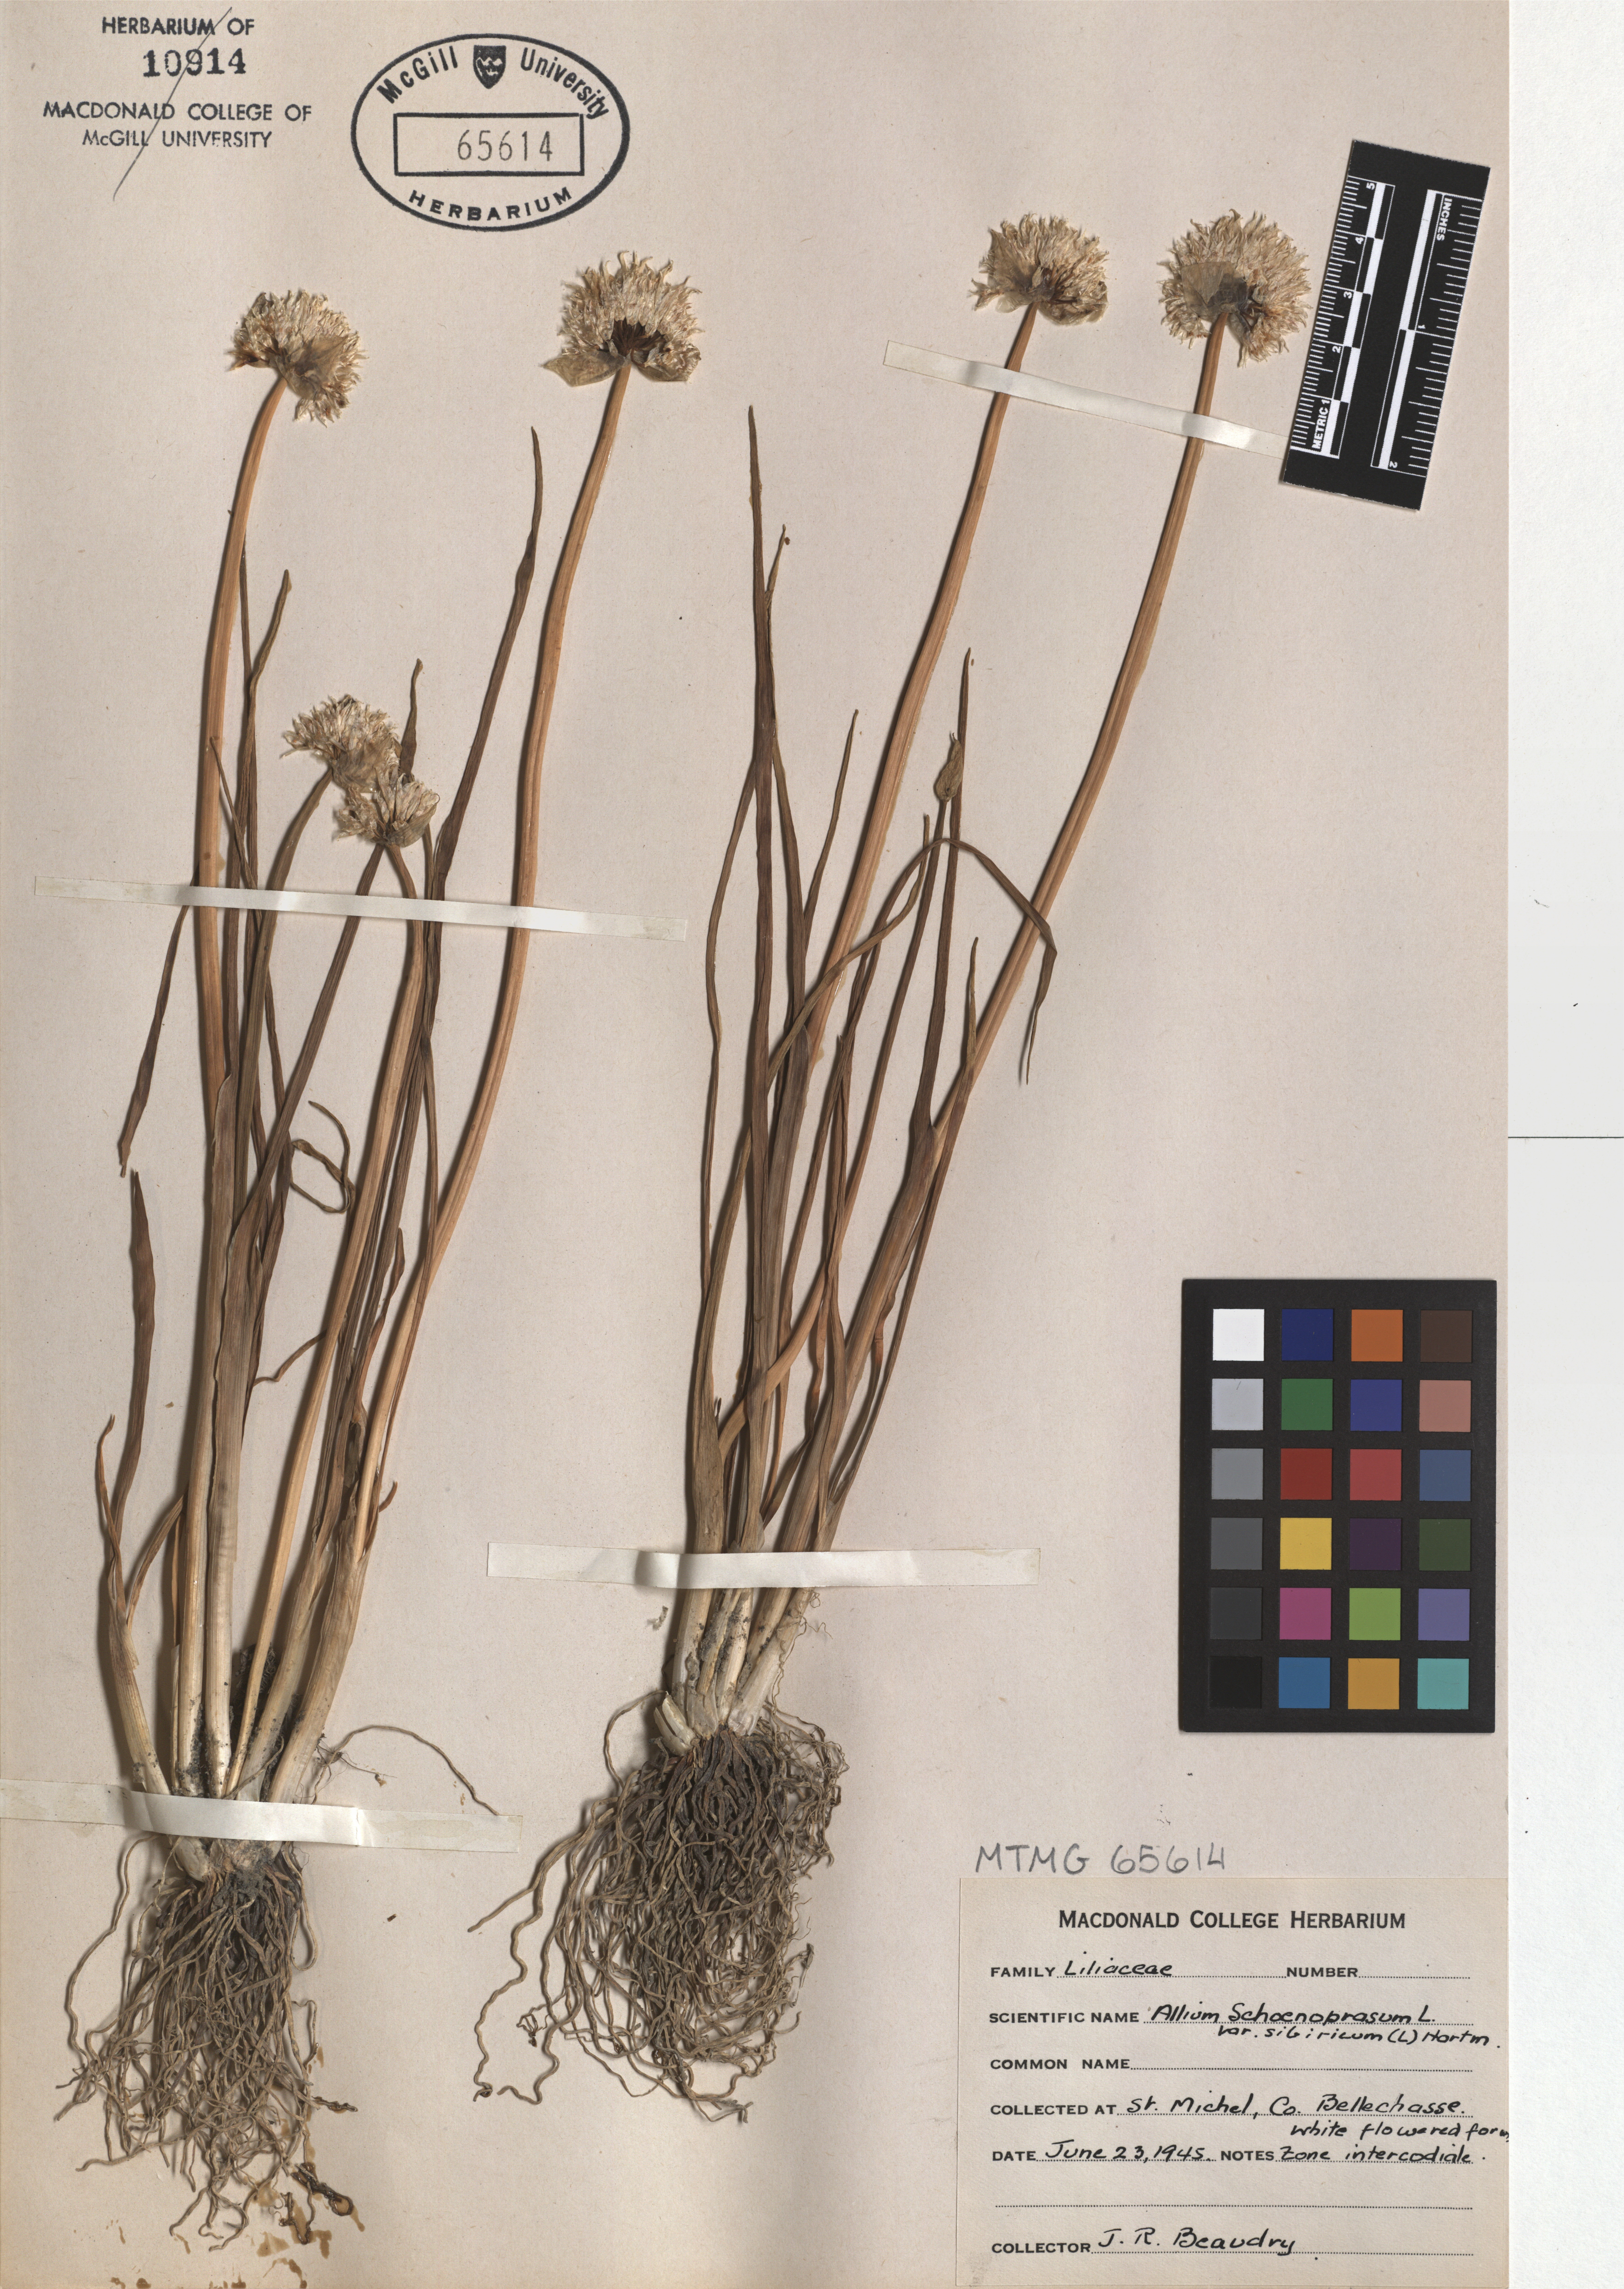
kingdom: Plantae
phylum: Tracheophyta
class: Liliopsida
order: Asparagales
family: Amaryllidaceae
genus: Allium
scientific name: Allium schoenoprasum
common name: Chives
